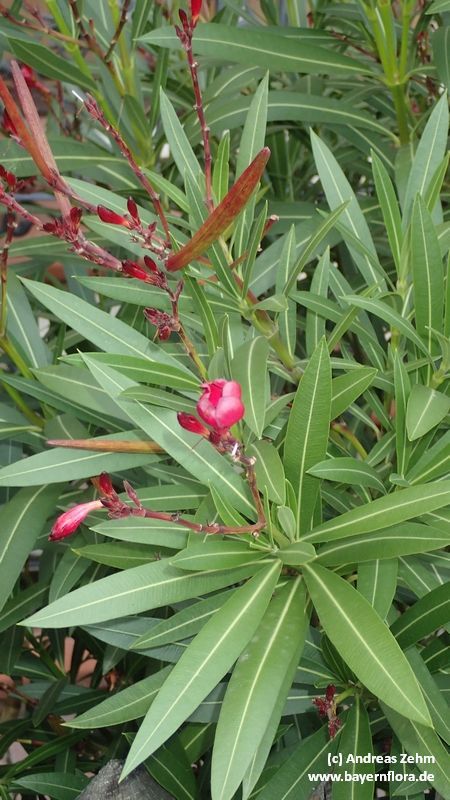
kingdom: Plantae
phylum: Tracheophyta
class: Magnoliopsida
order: Gentianales
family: Apocynaceae
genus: Nerium
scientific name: Nerium oleander
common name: Oleander
